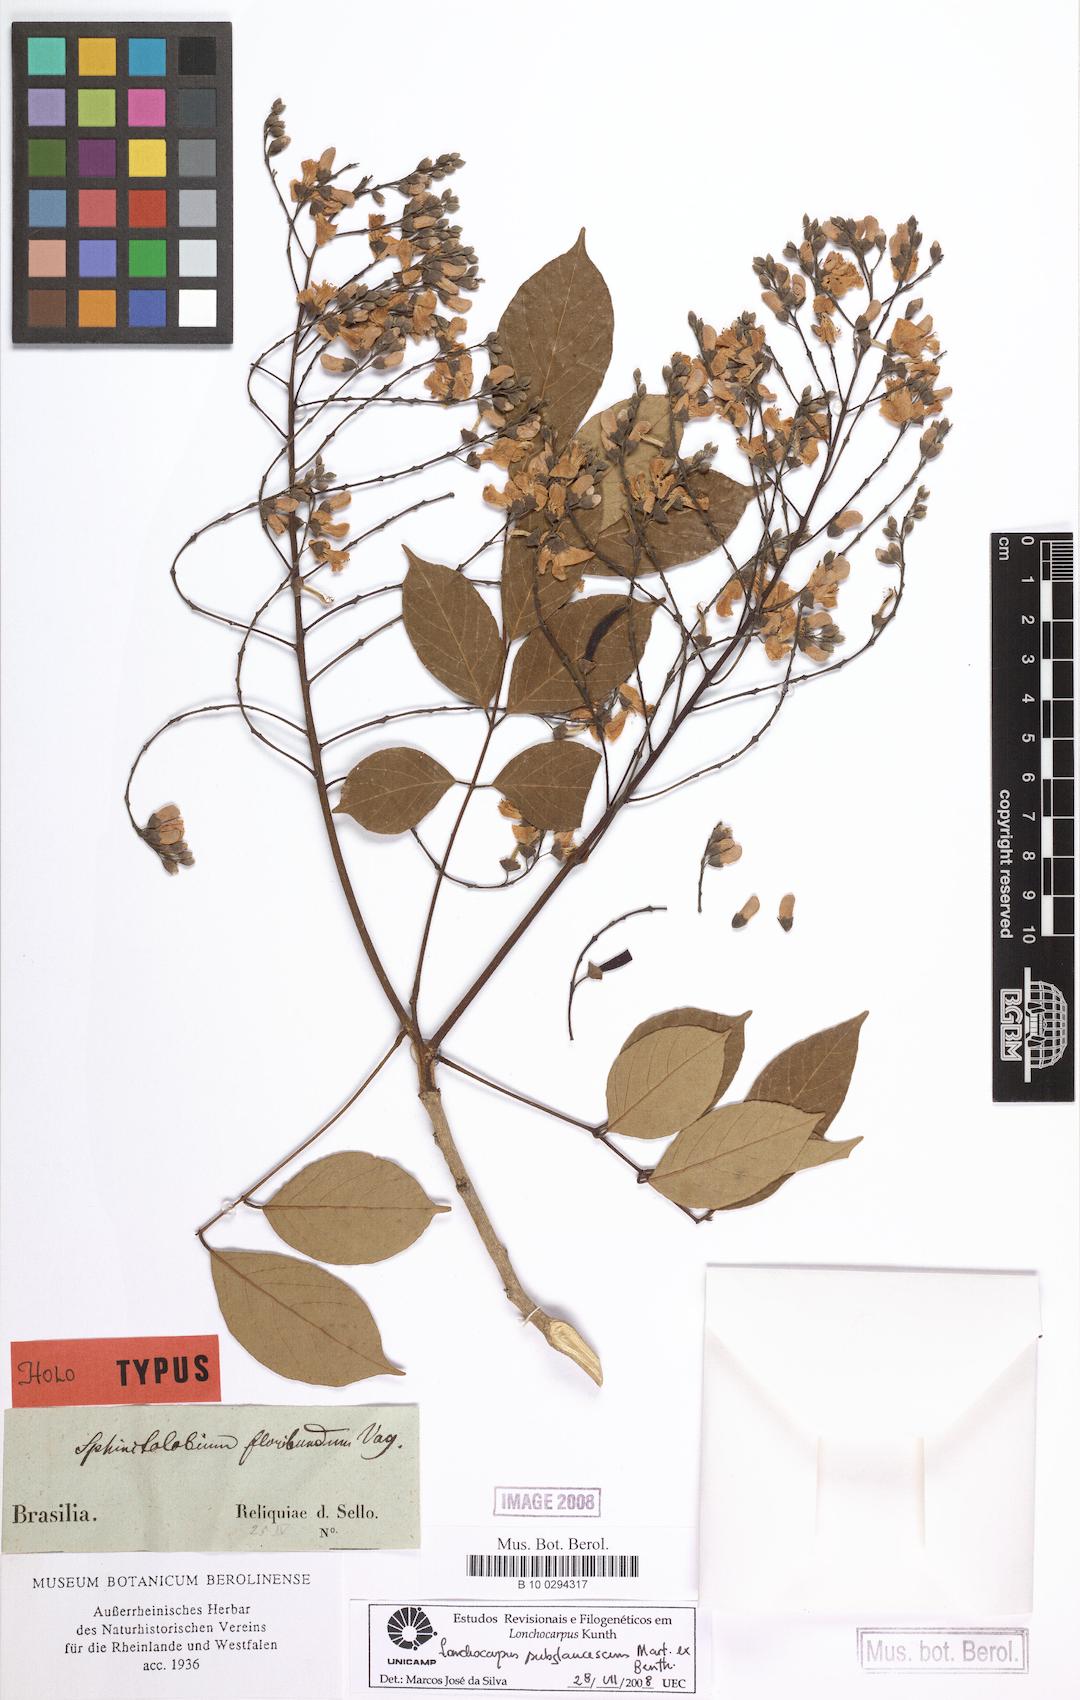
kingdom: Plantae
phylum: Tracheophyta
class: Magnoliopsida
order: Fabales
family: Fabaceae
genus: Lonchocarpus
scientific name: Lonchocarpus subglaucescens
